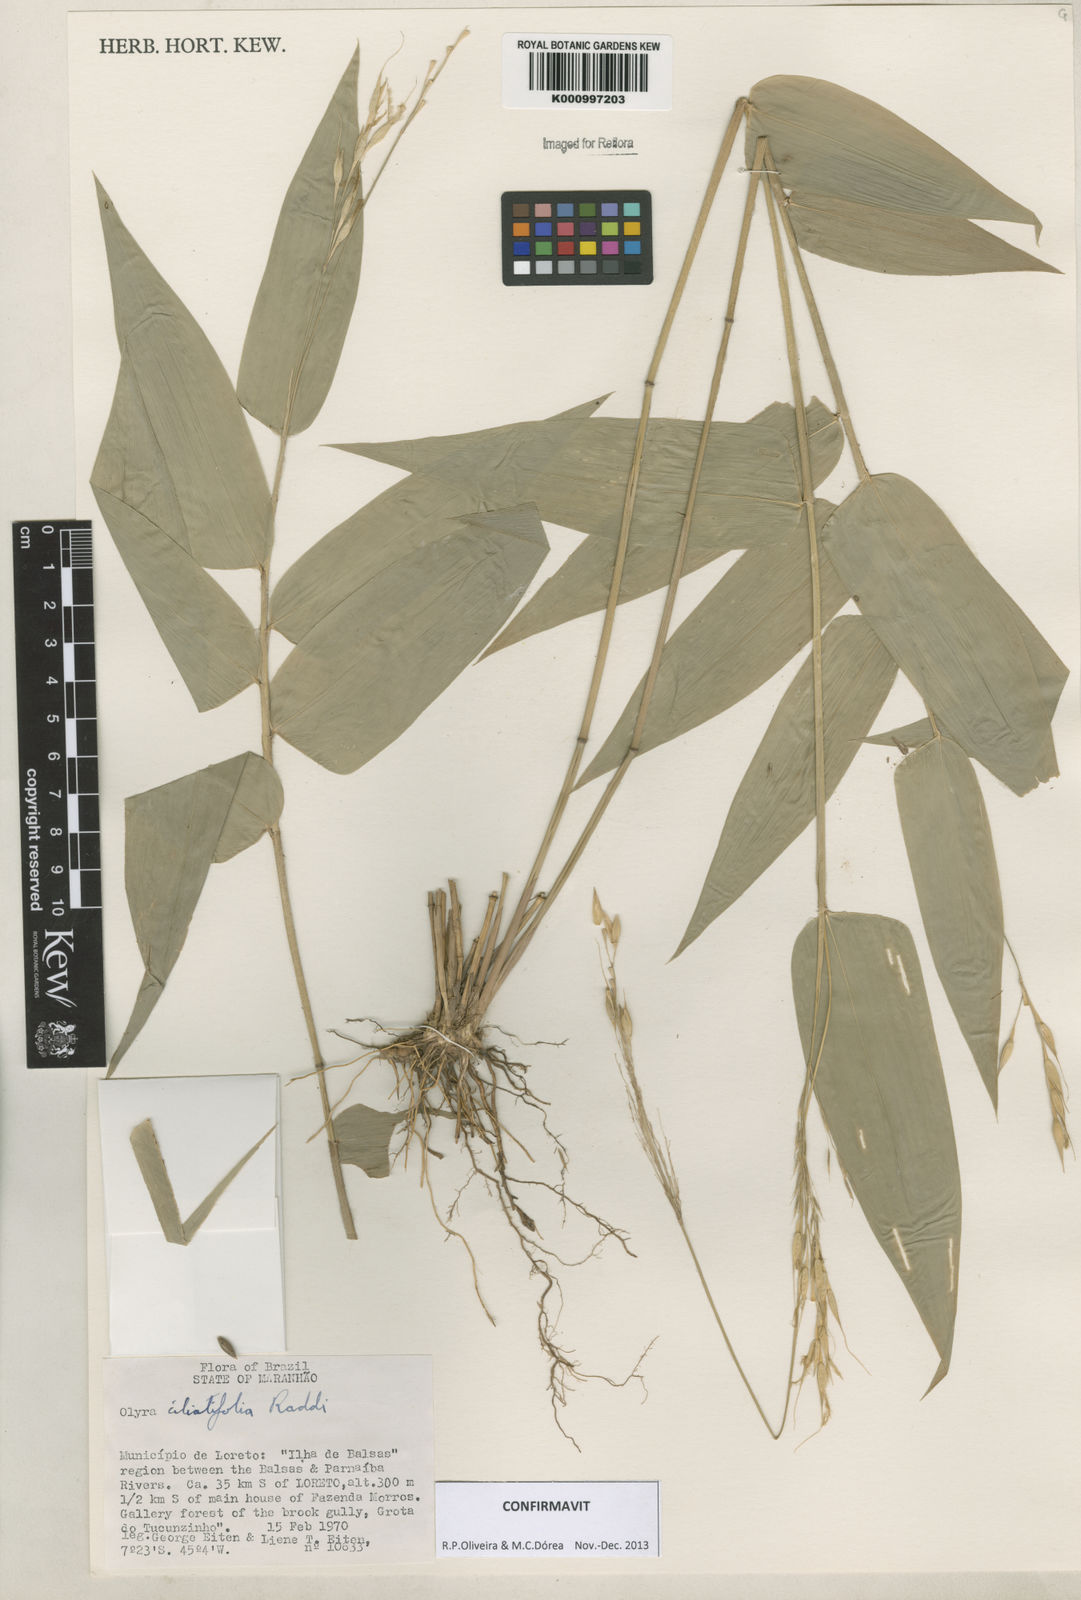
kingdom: Plantae
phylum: Tracheophyta
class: Liliopsida
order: Poales
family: Poaceae
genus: Olyra
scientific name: Olyra ciliatifolia
